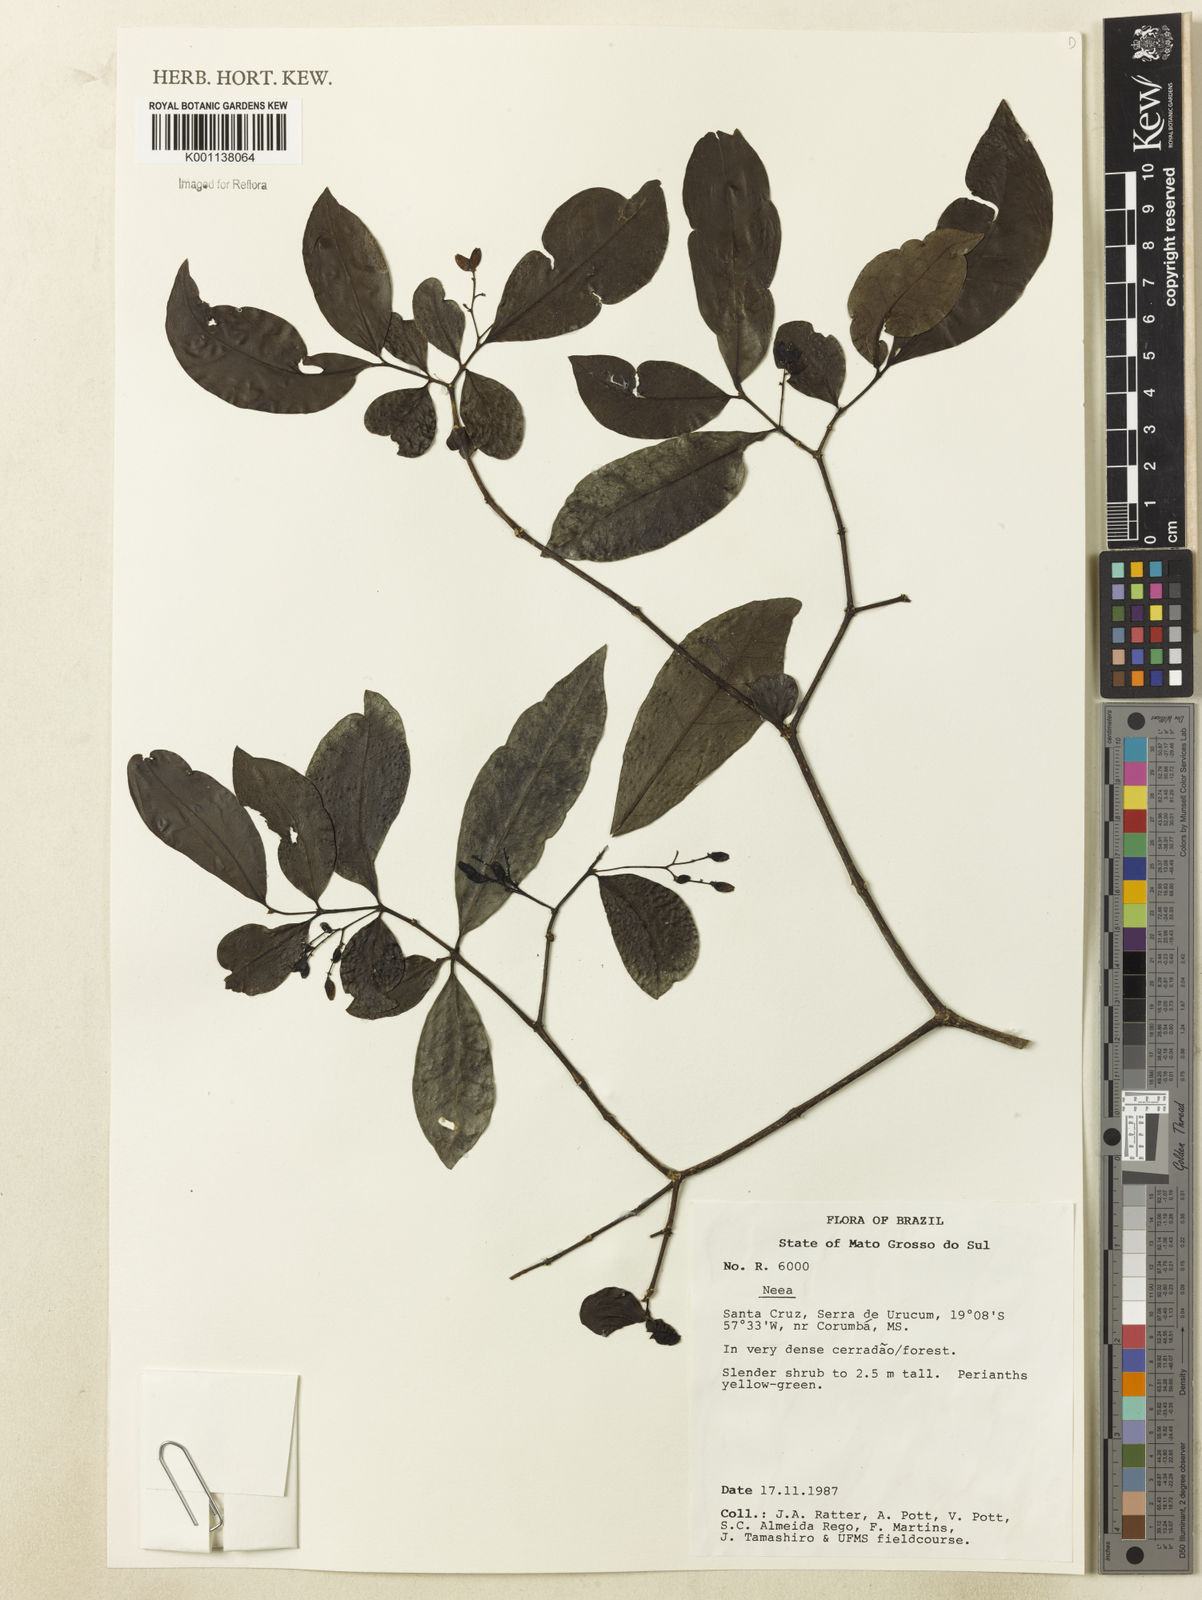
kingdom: Plantae
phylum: Tracheophyta
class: Magnoliopsida
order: Caryophyllales
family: Nyctaginaceae
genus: Neea
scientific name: Neea
